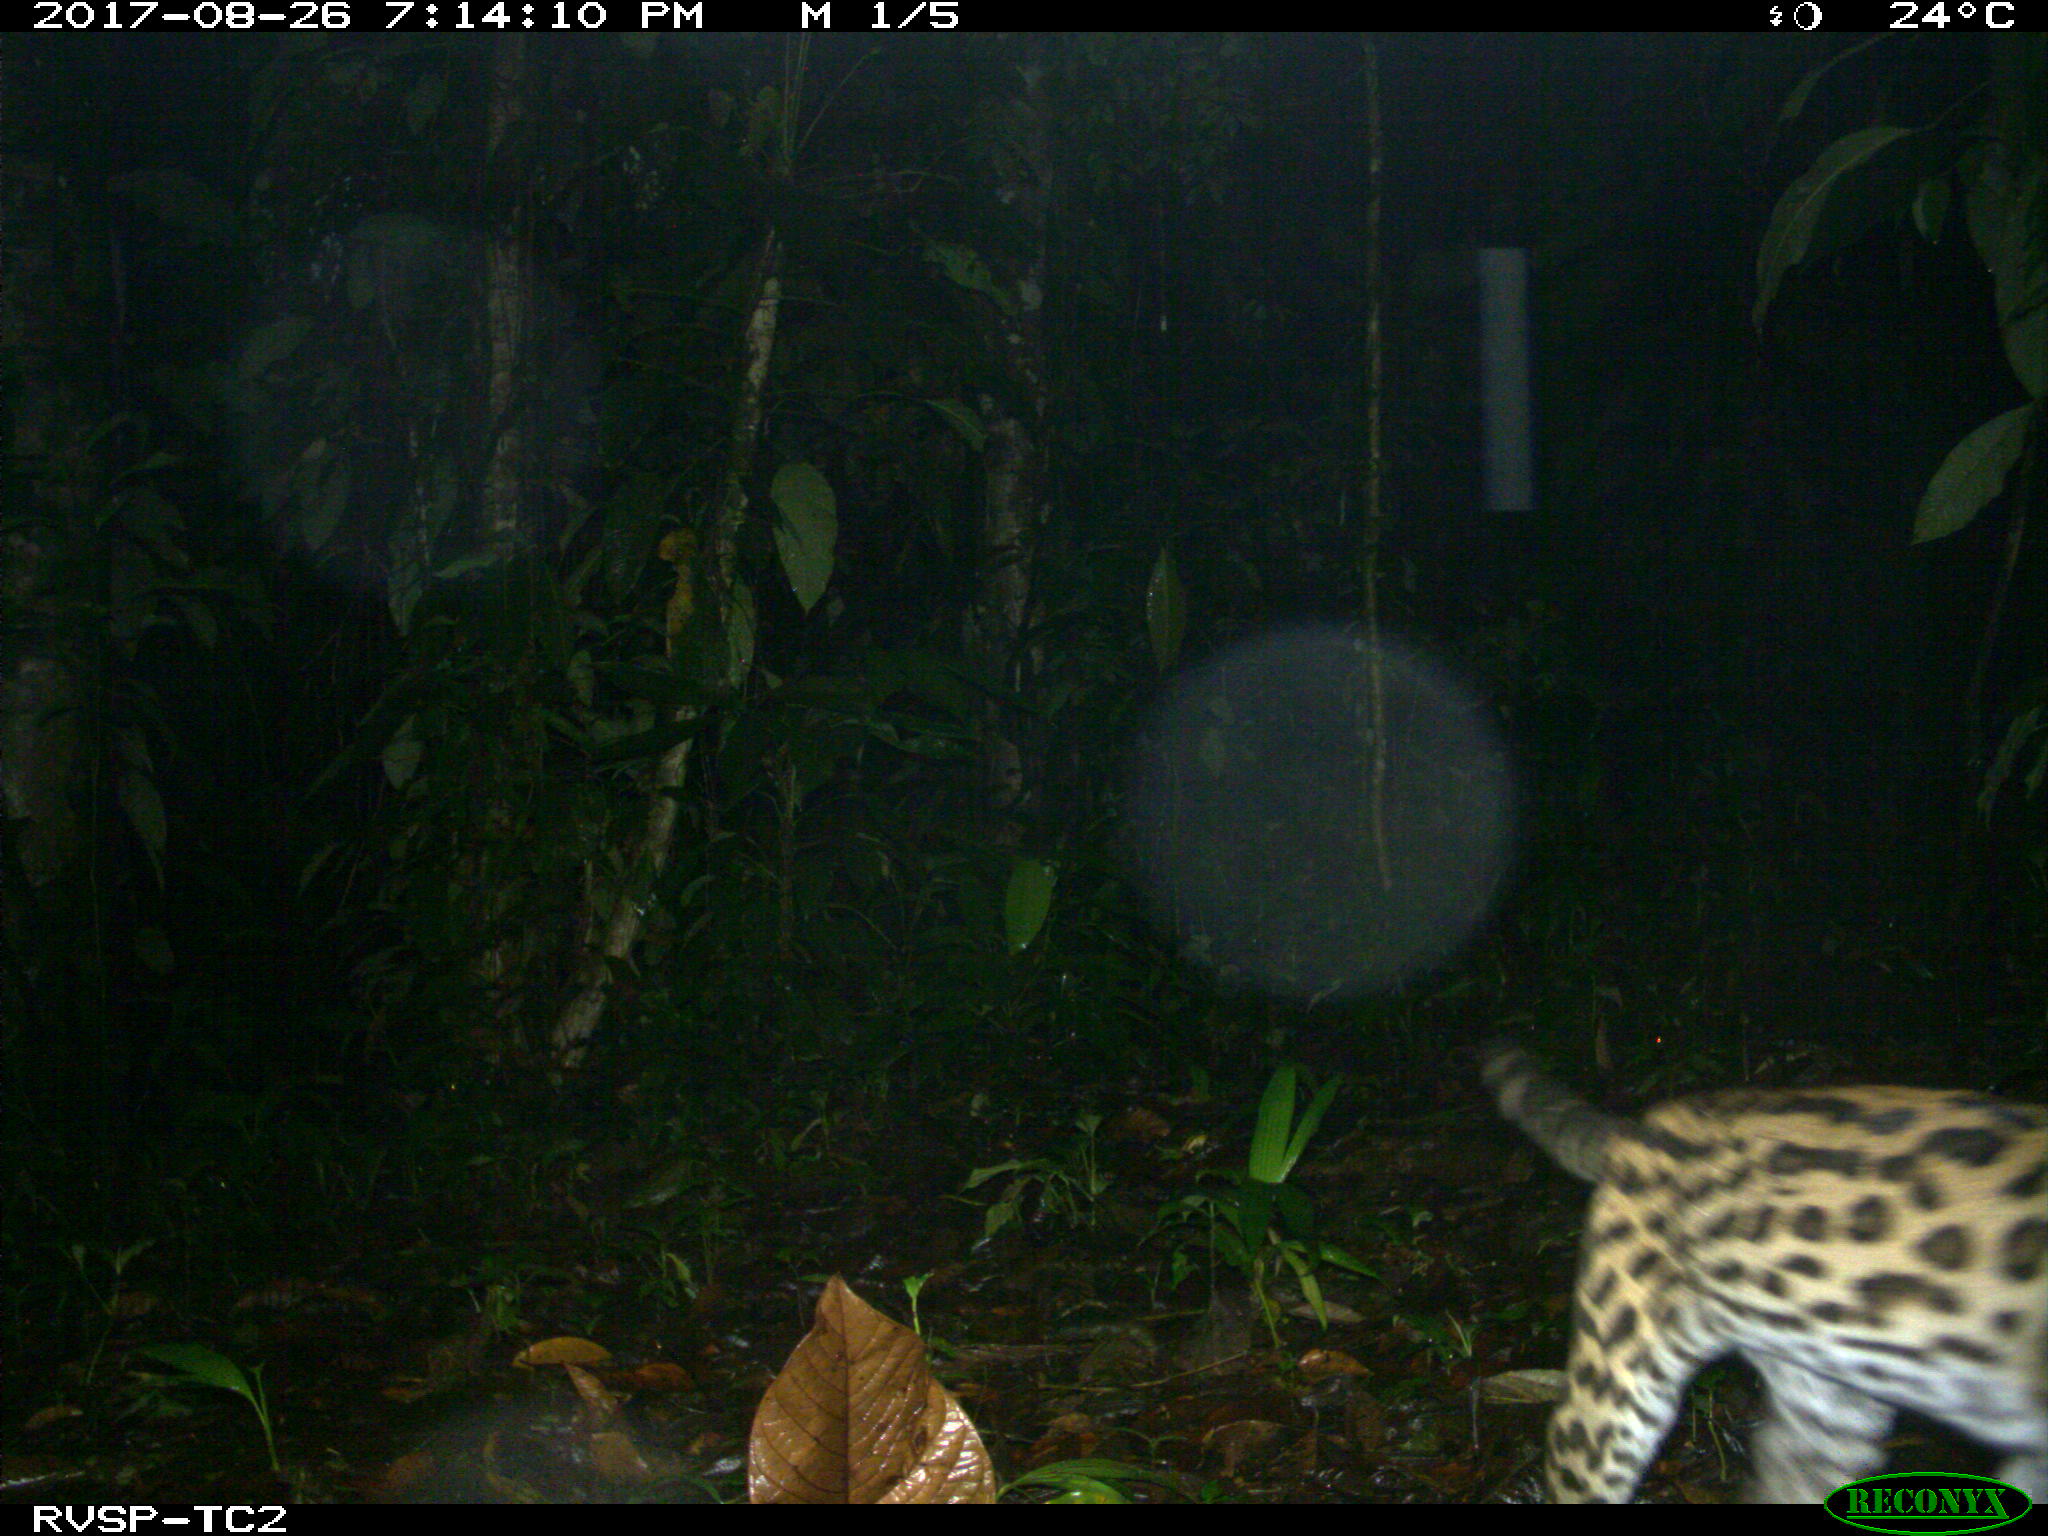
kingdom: Animalia
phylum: Chordata
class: Mammalia
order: Carnivora
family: Felidae
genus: Leopardus
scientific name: Leopardus pardalis
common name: Ocelot
